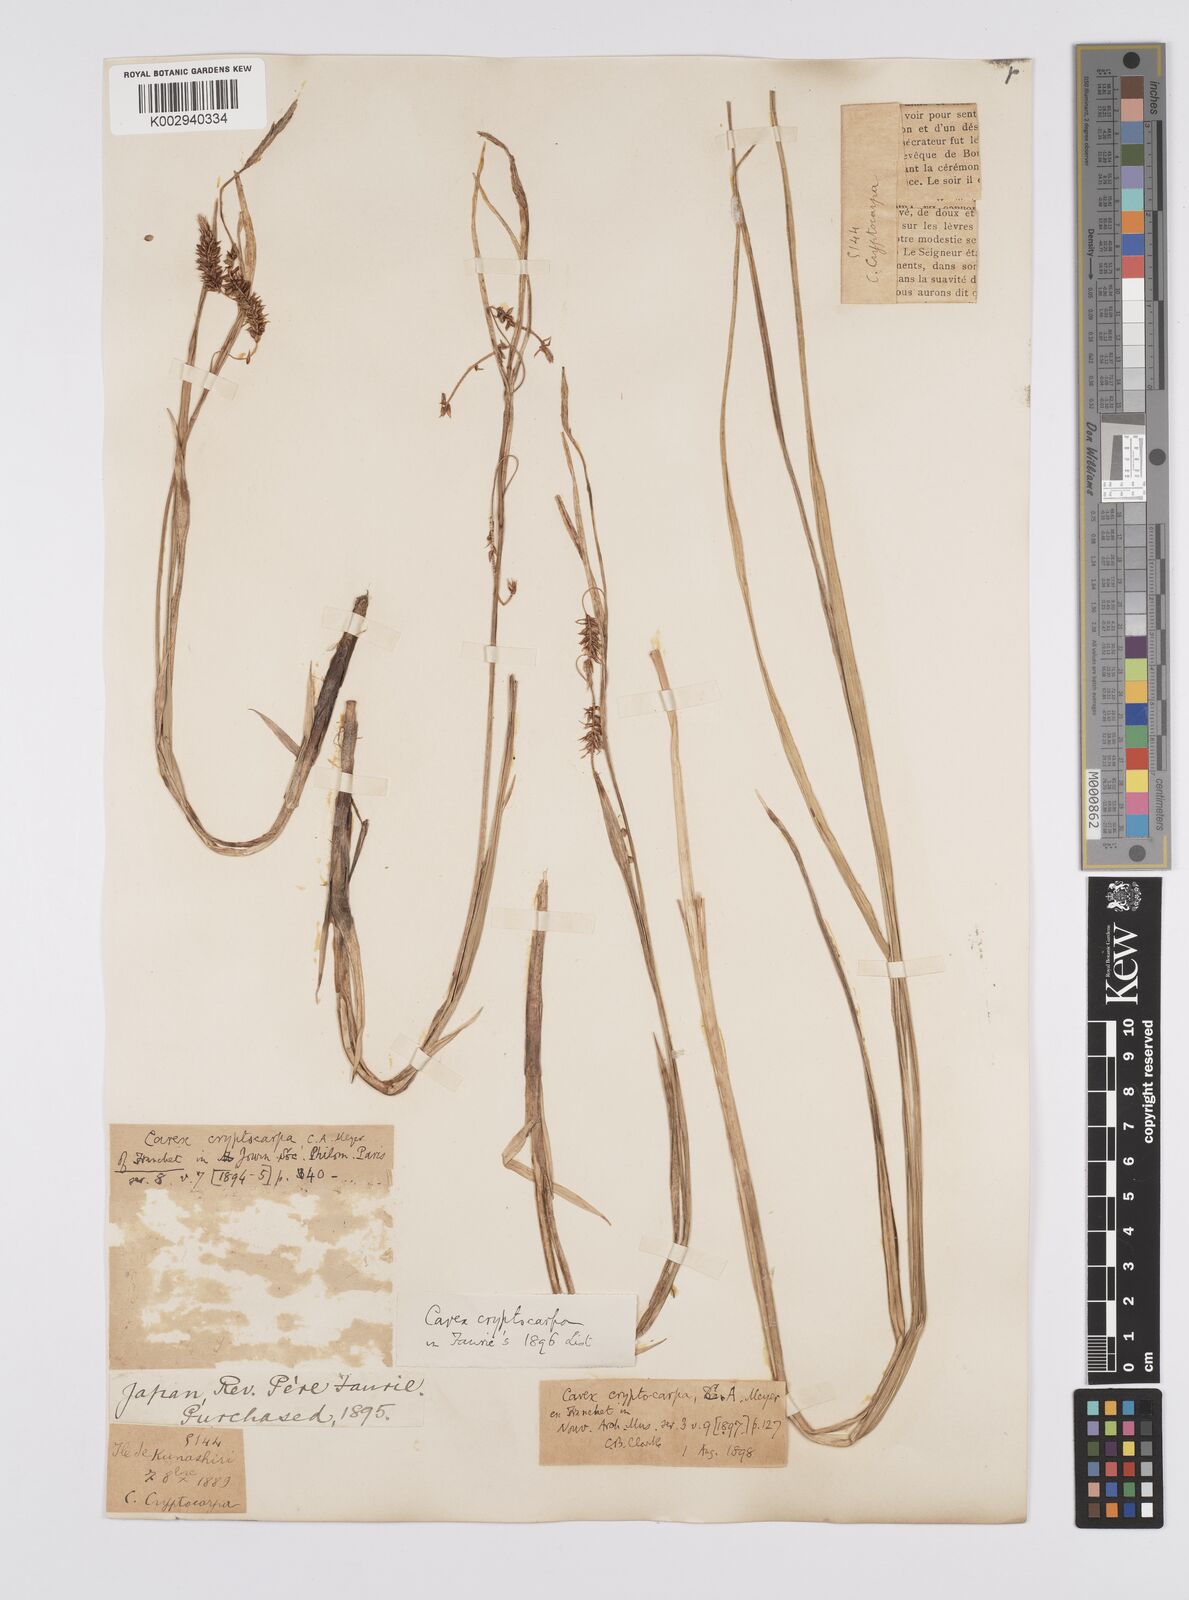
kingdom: Plantae
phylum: Tracheophyta
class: Liliopsida
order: Poales
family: Cyperaceae
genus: Carex
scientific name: Carex lyngbyei
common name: Lyngbye's sedge
